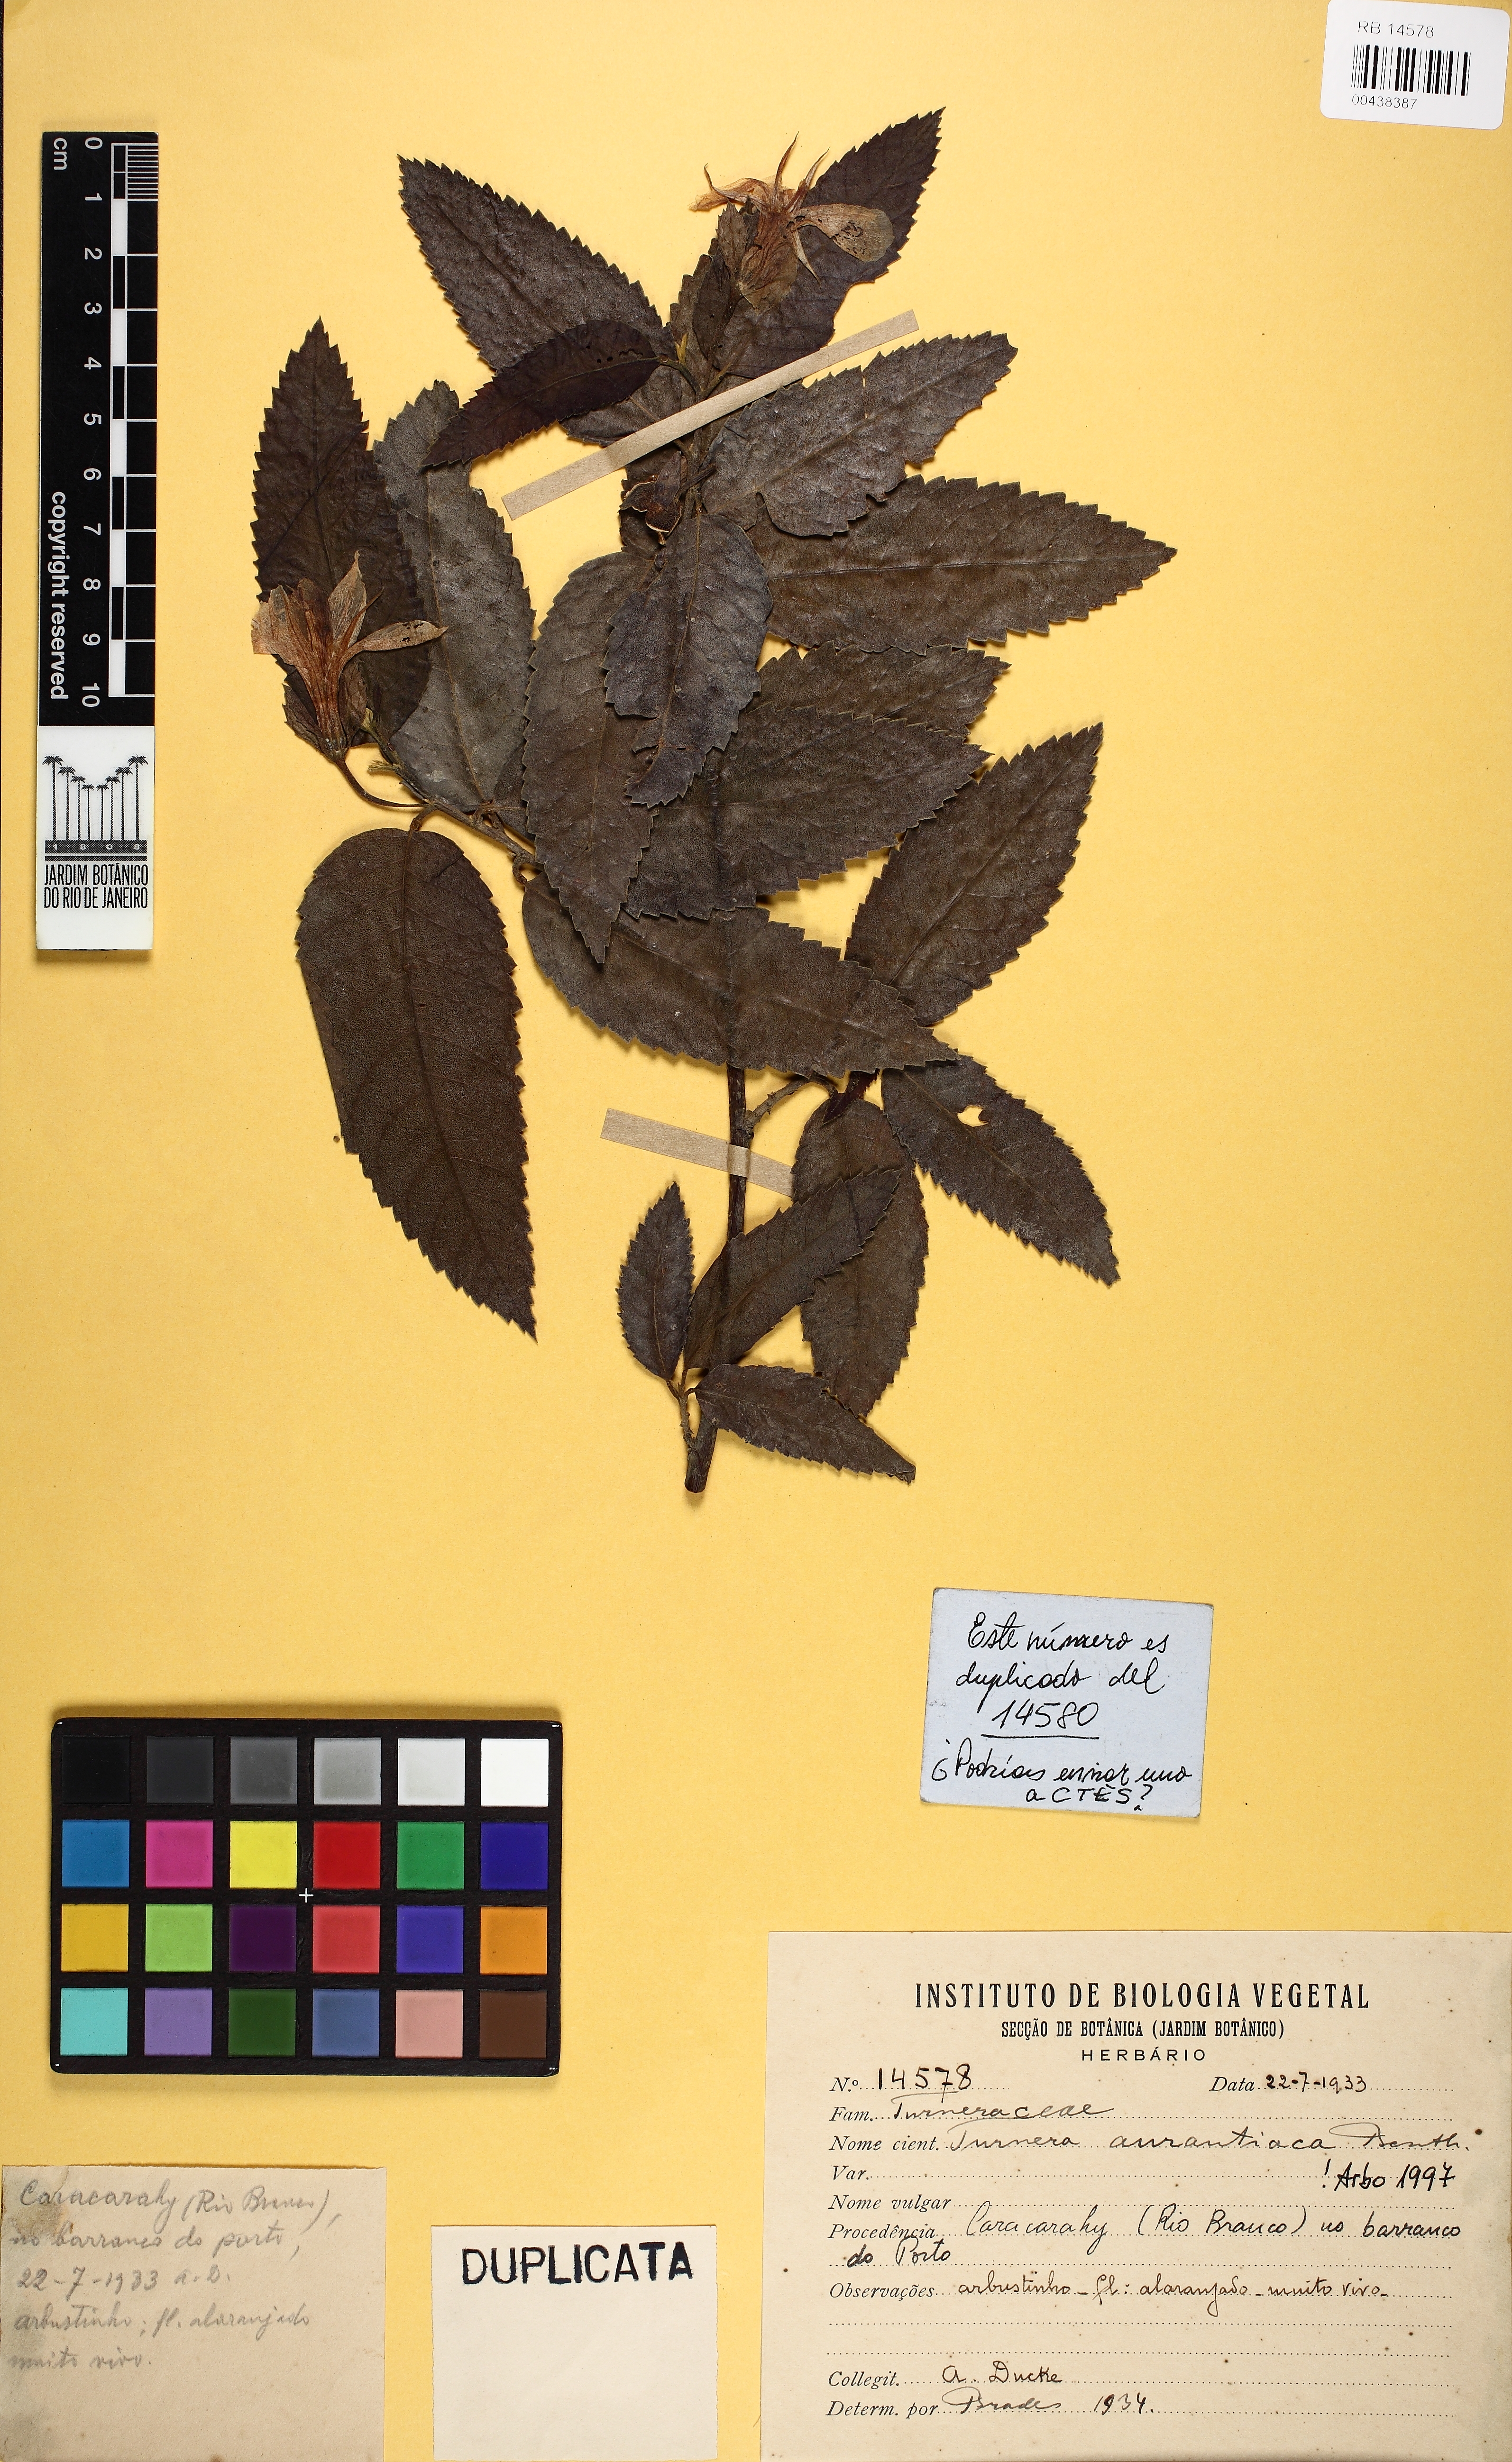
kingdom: Plantae
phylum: Tracheophyta
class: Magnoliopsida
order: Malpighiales
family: Turneraceae
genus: Turnera
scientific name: Turnera aurantiaca
